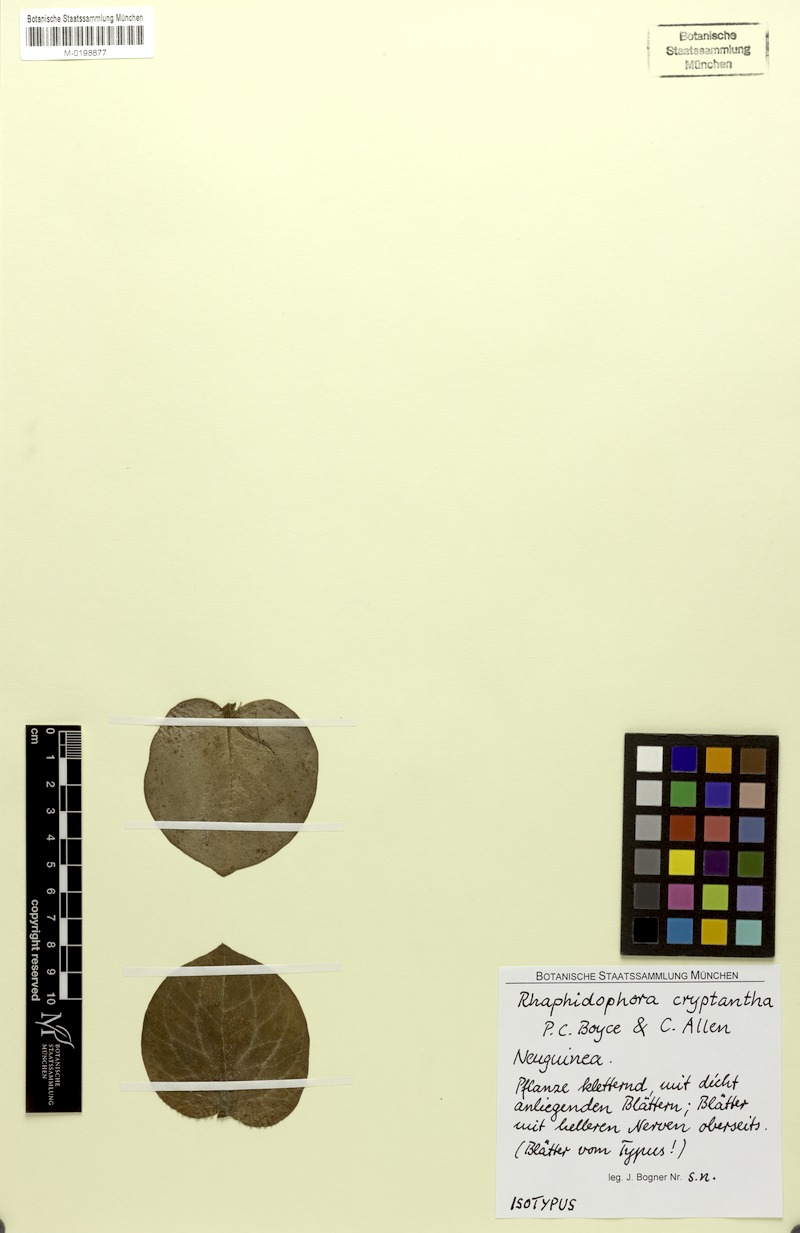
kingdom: Plantae
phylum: Tracheophyta
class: Liliopsida
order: Alismatales
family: Araceae
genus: Rhaphidophora
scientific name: Rhaphidophora cryptantha
